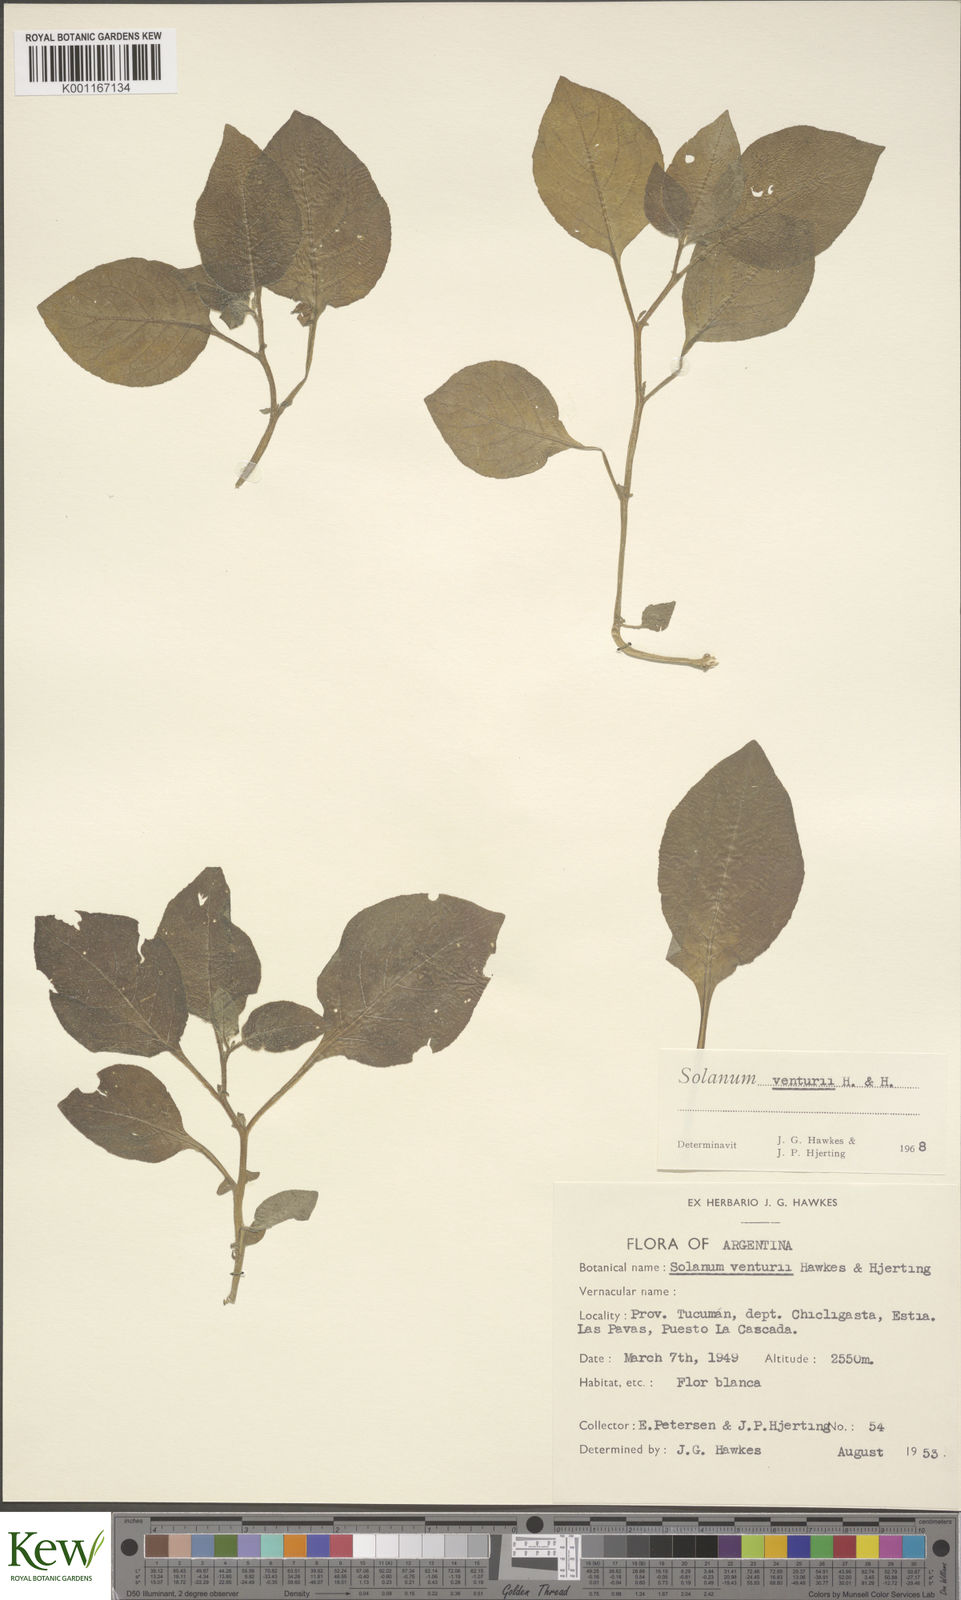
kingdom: Plantae
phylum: Tracheophyta
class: Magnoliopsida
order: Solanales
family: Solanaceae
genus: Solanum
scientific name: Solanum venturii
